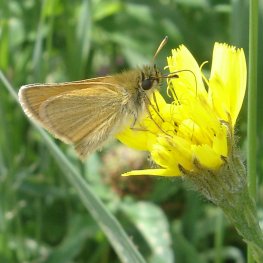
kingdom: Animalia
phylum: Arthropoda
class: Insecta
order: Lepidoptera
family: Hesperiidae
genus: Thymelicus
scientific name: Thymelicus lineola
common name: European Skipper
